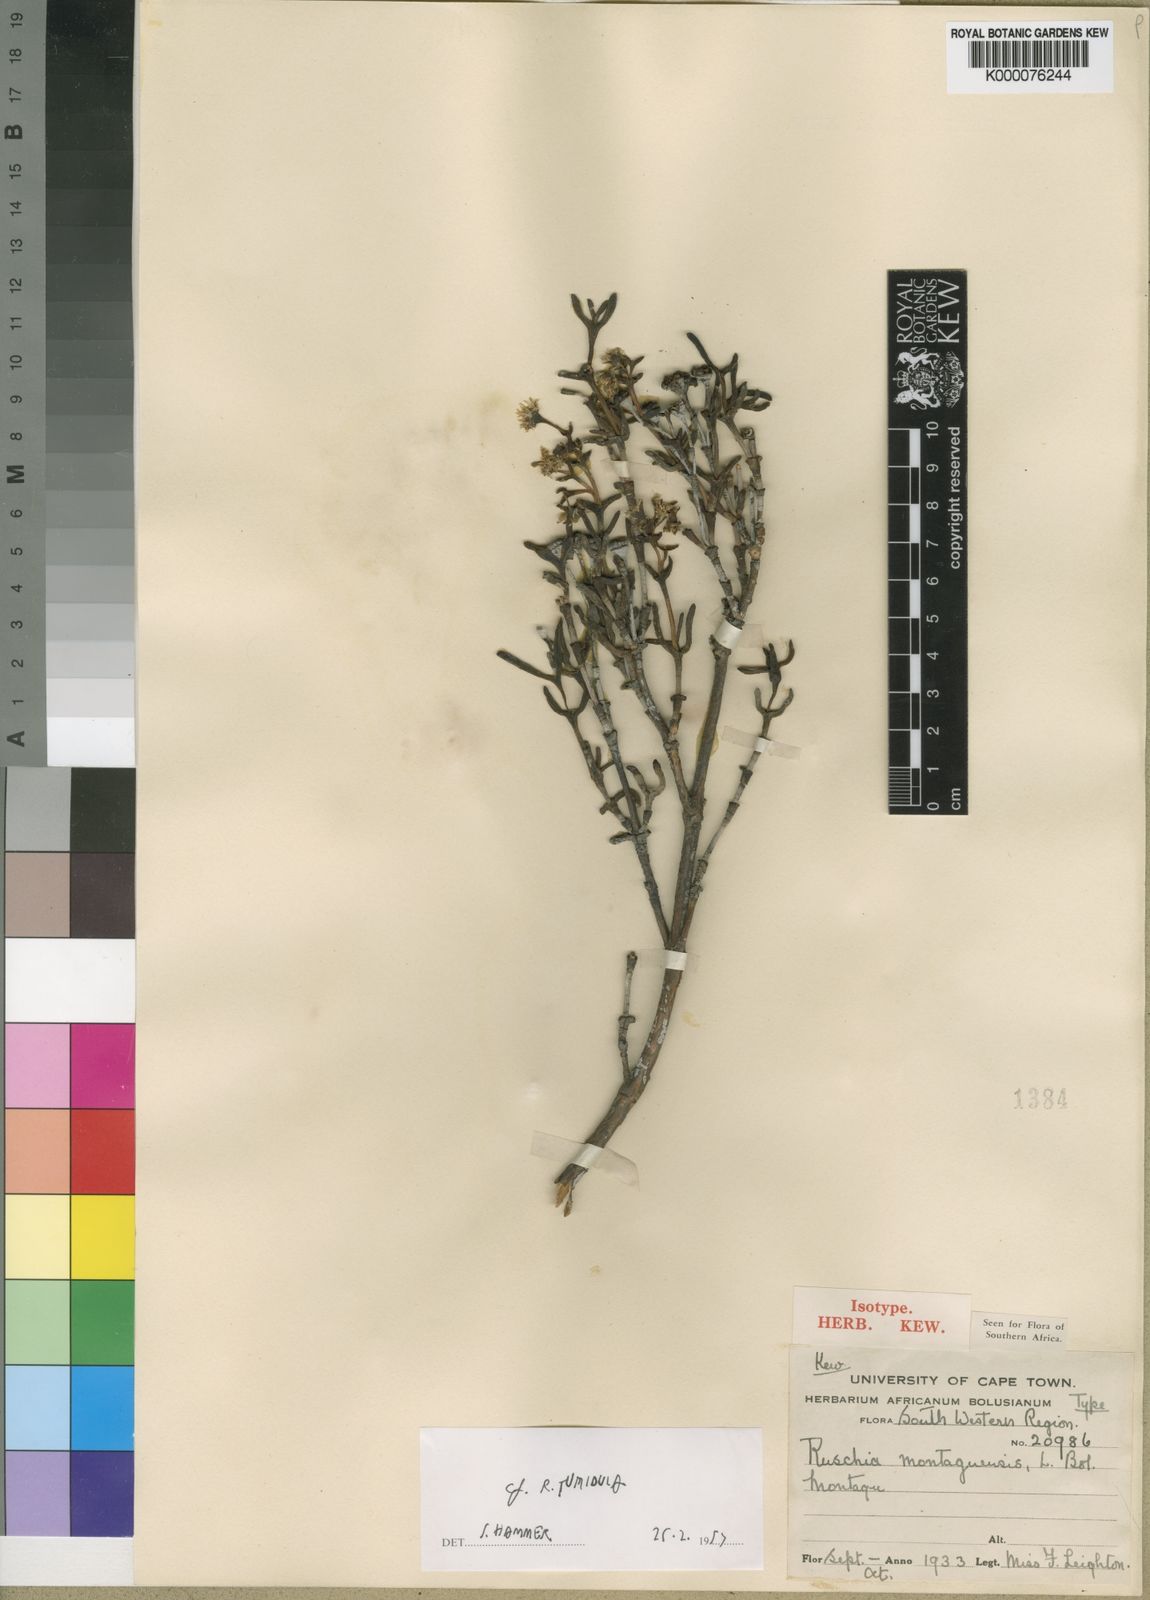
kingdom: Plantae
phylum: Tracheophyta
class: Magnoliopsida
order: Caryophyllales
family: Aizoaceae
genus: Ruschia
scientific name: Ruschia montaguensis
